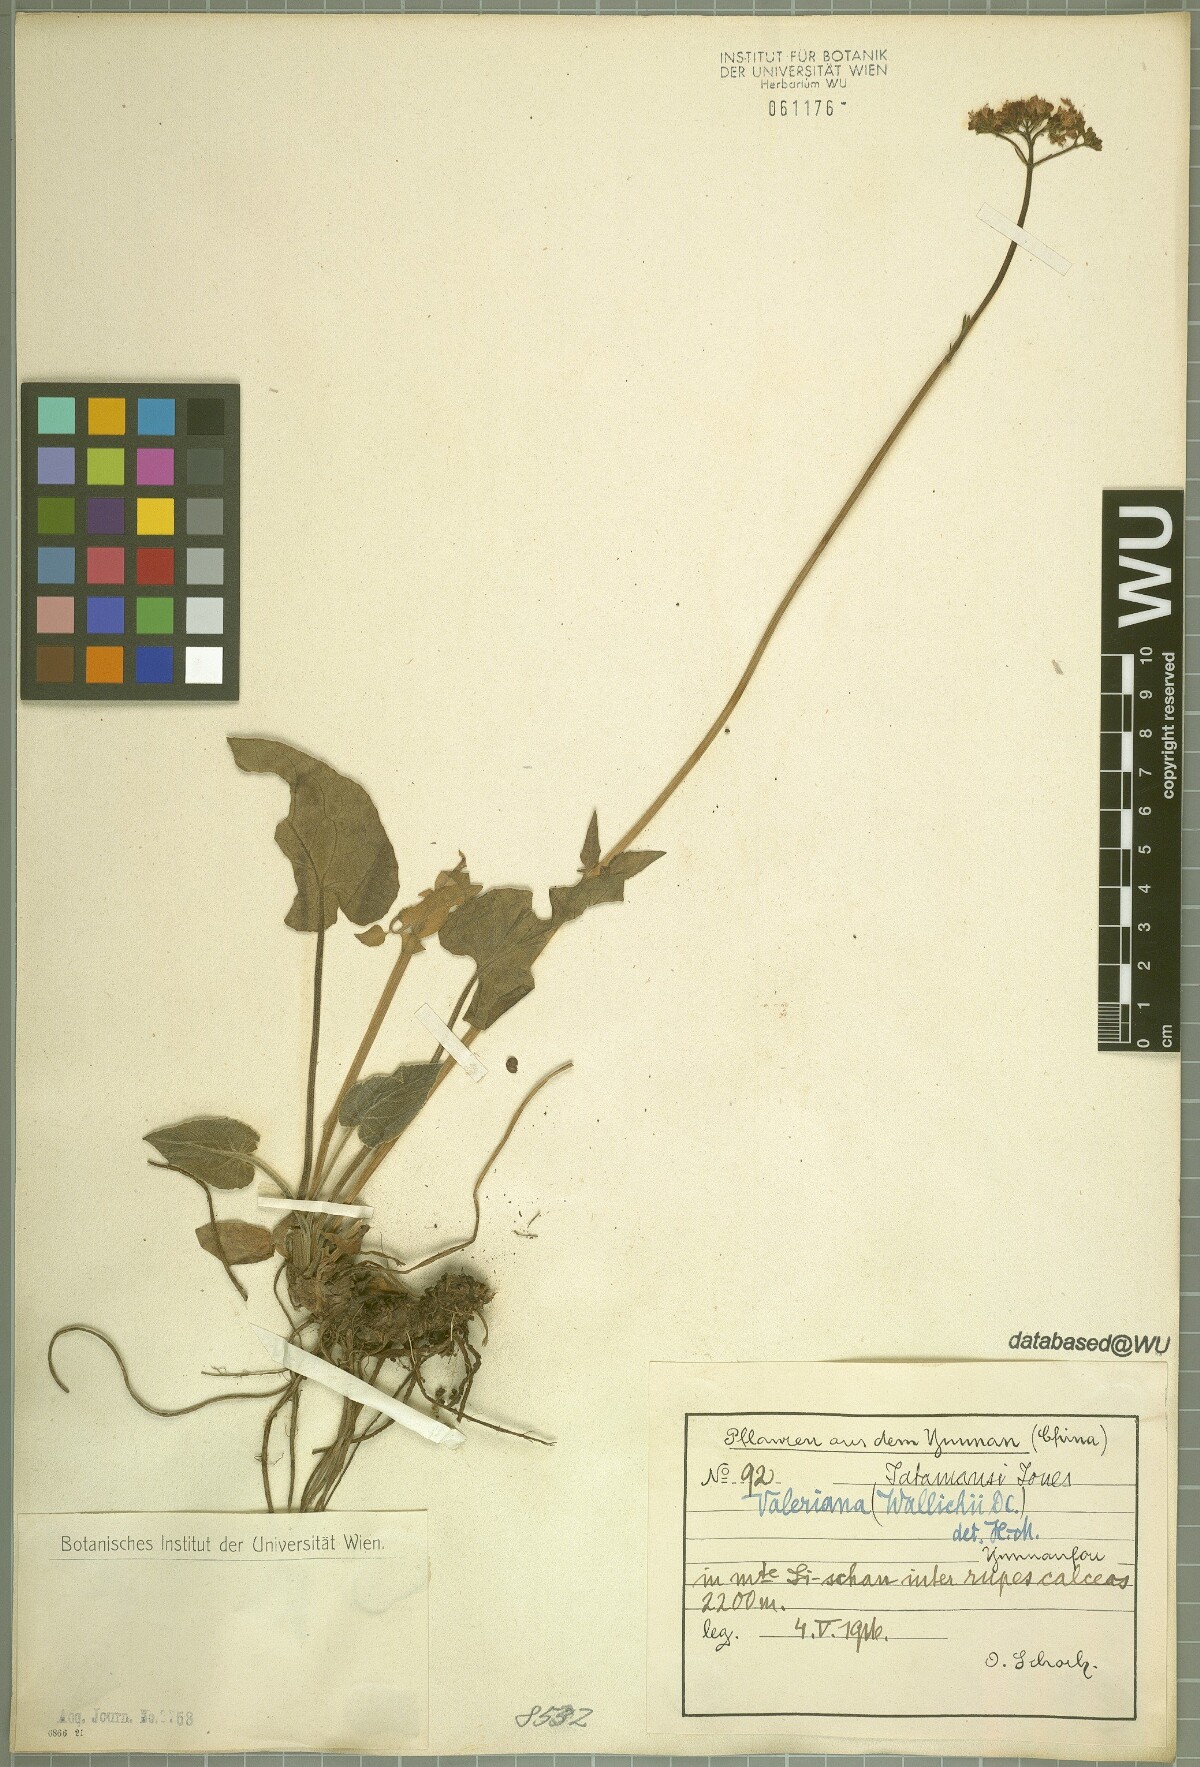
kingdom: Plantae
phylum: Tracheophyta
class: Magnoliopsida
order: Dipsacales
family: Caprifoliaceae
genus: Valeriana
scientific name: Valeriana jatamansi
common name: Indian valerian
